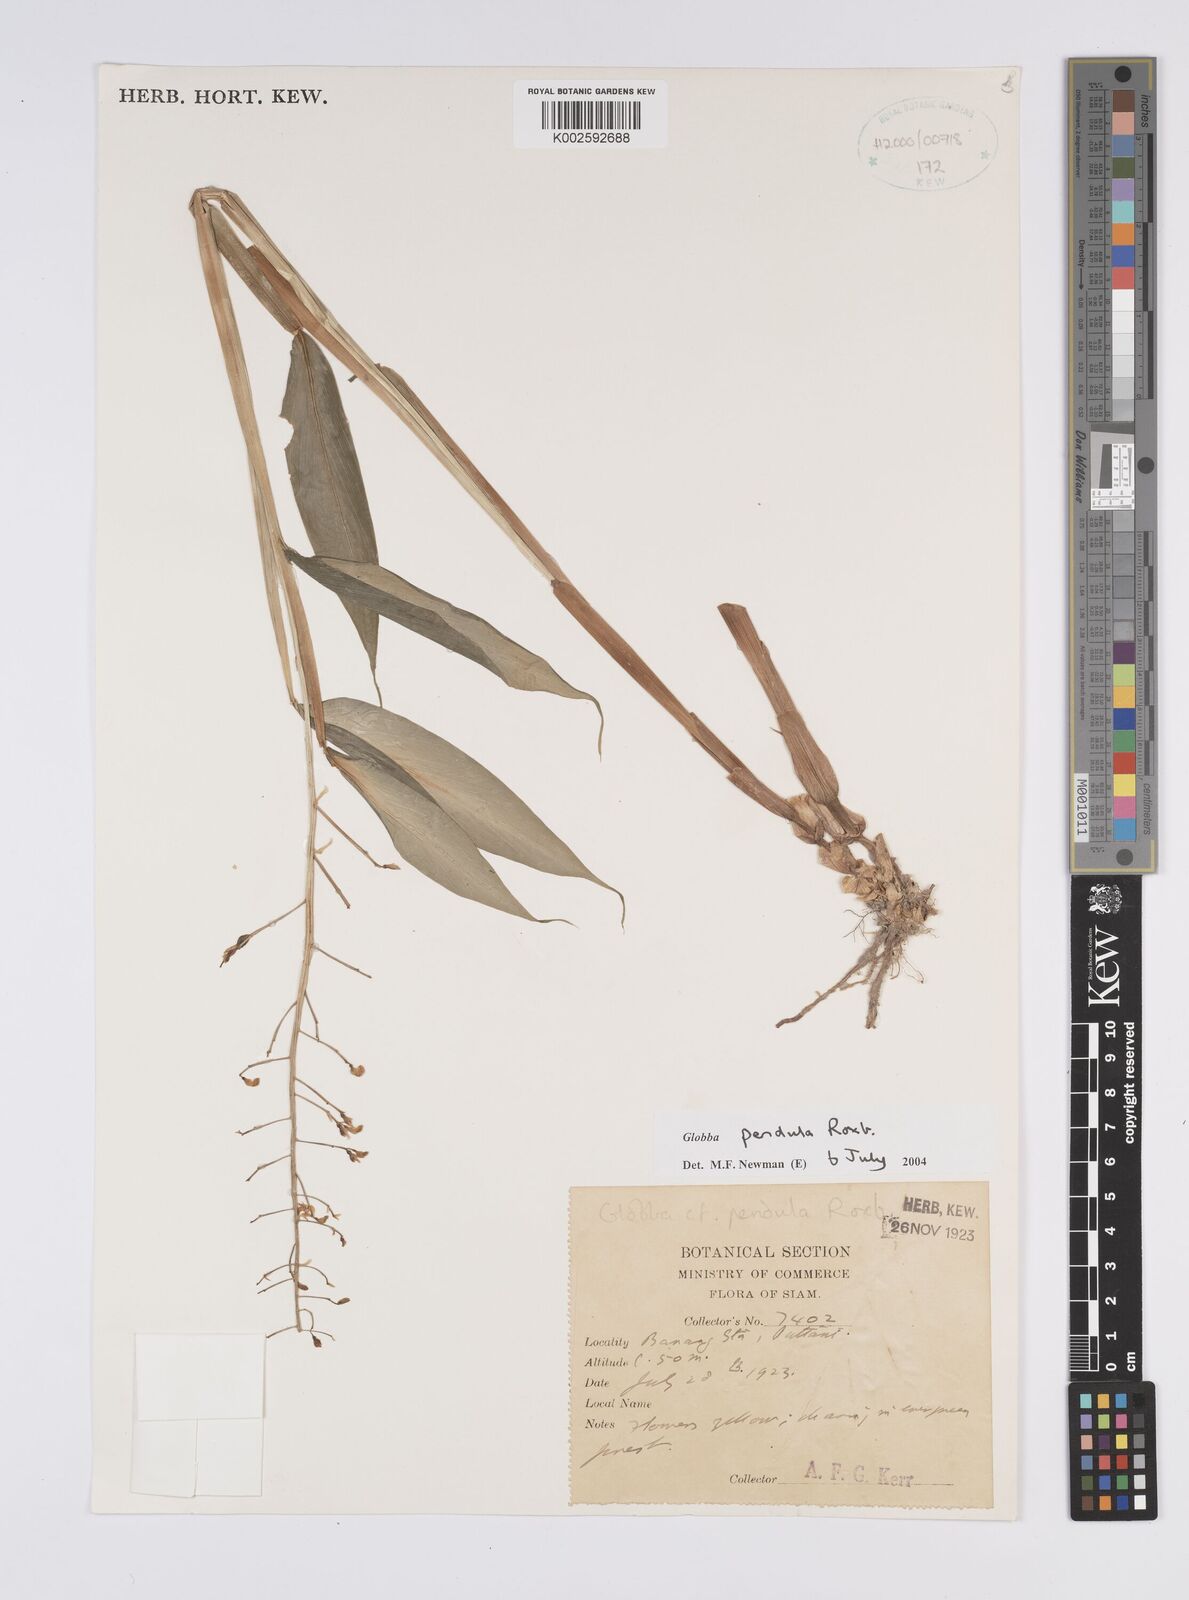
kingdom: Plantae
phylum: Tracheophyta
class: Liliopsida
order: Zingiberales
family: Zingiberaceae
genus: Globba
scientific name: Globba pendula
